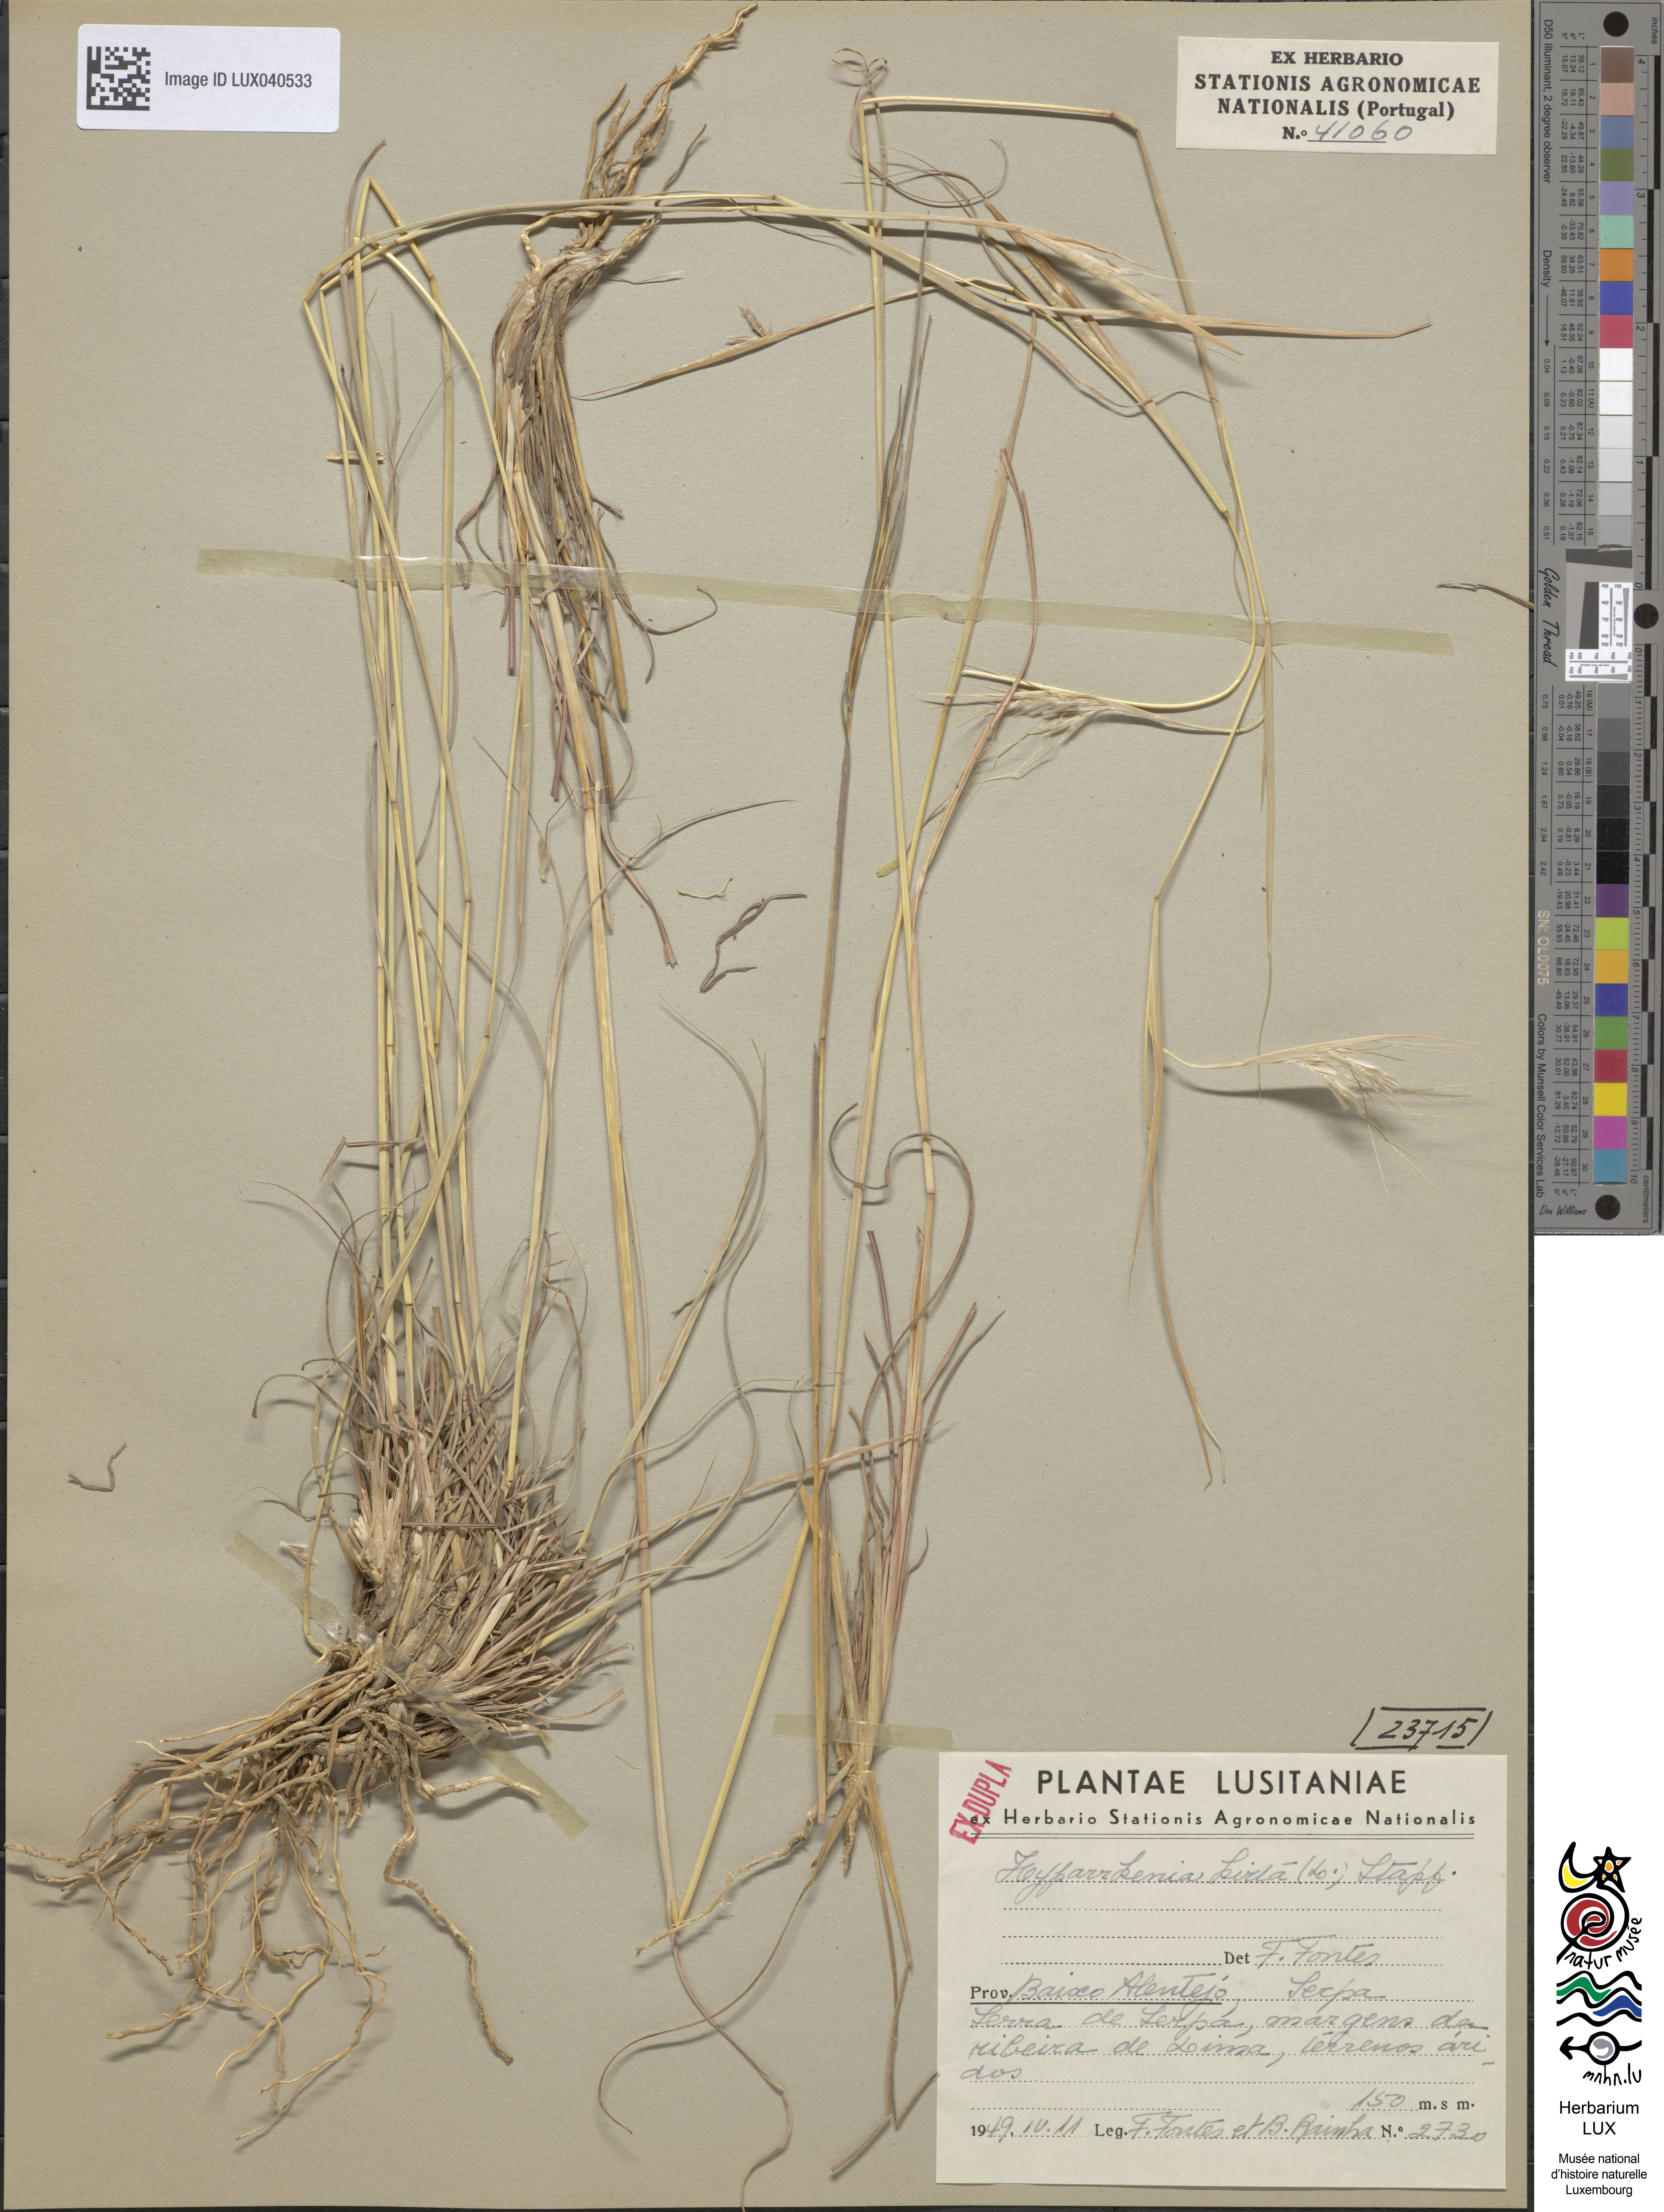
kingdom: Plantae
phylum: Tracheophyta
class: Liliopsida
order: Poales
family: Poaceae
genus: Hyparrhenia
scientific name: Hyparrhenia hirta
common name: Thatching grass
